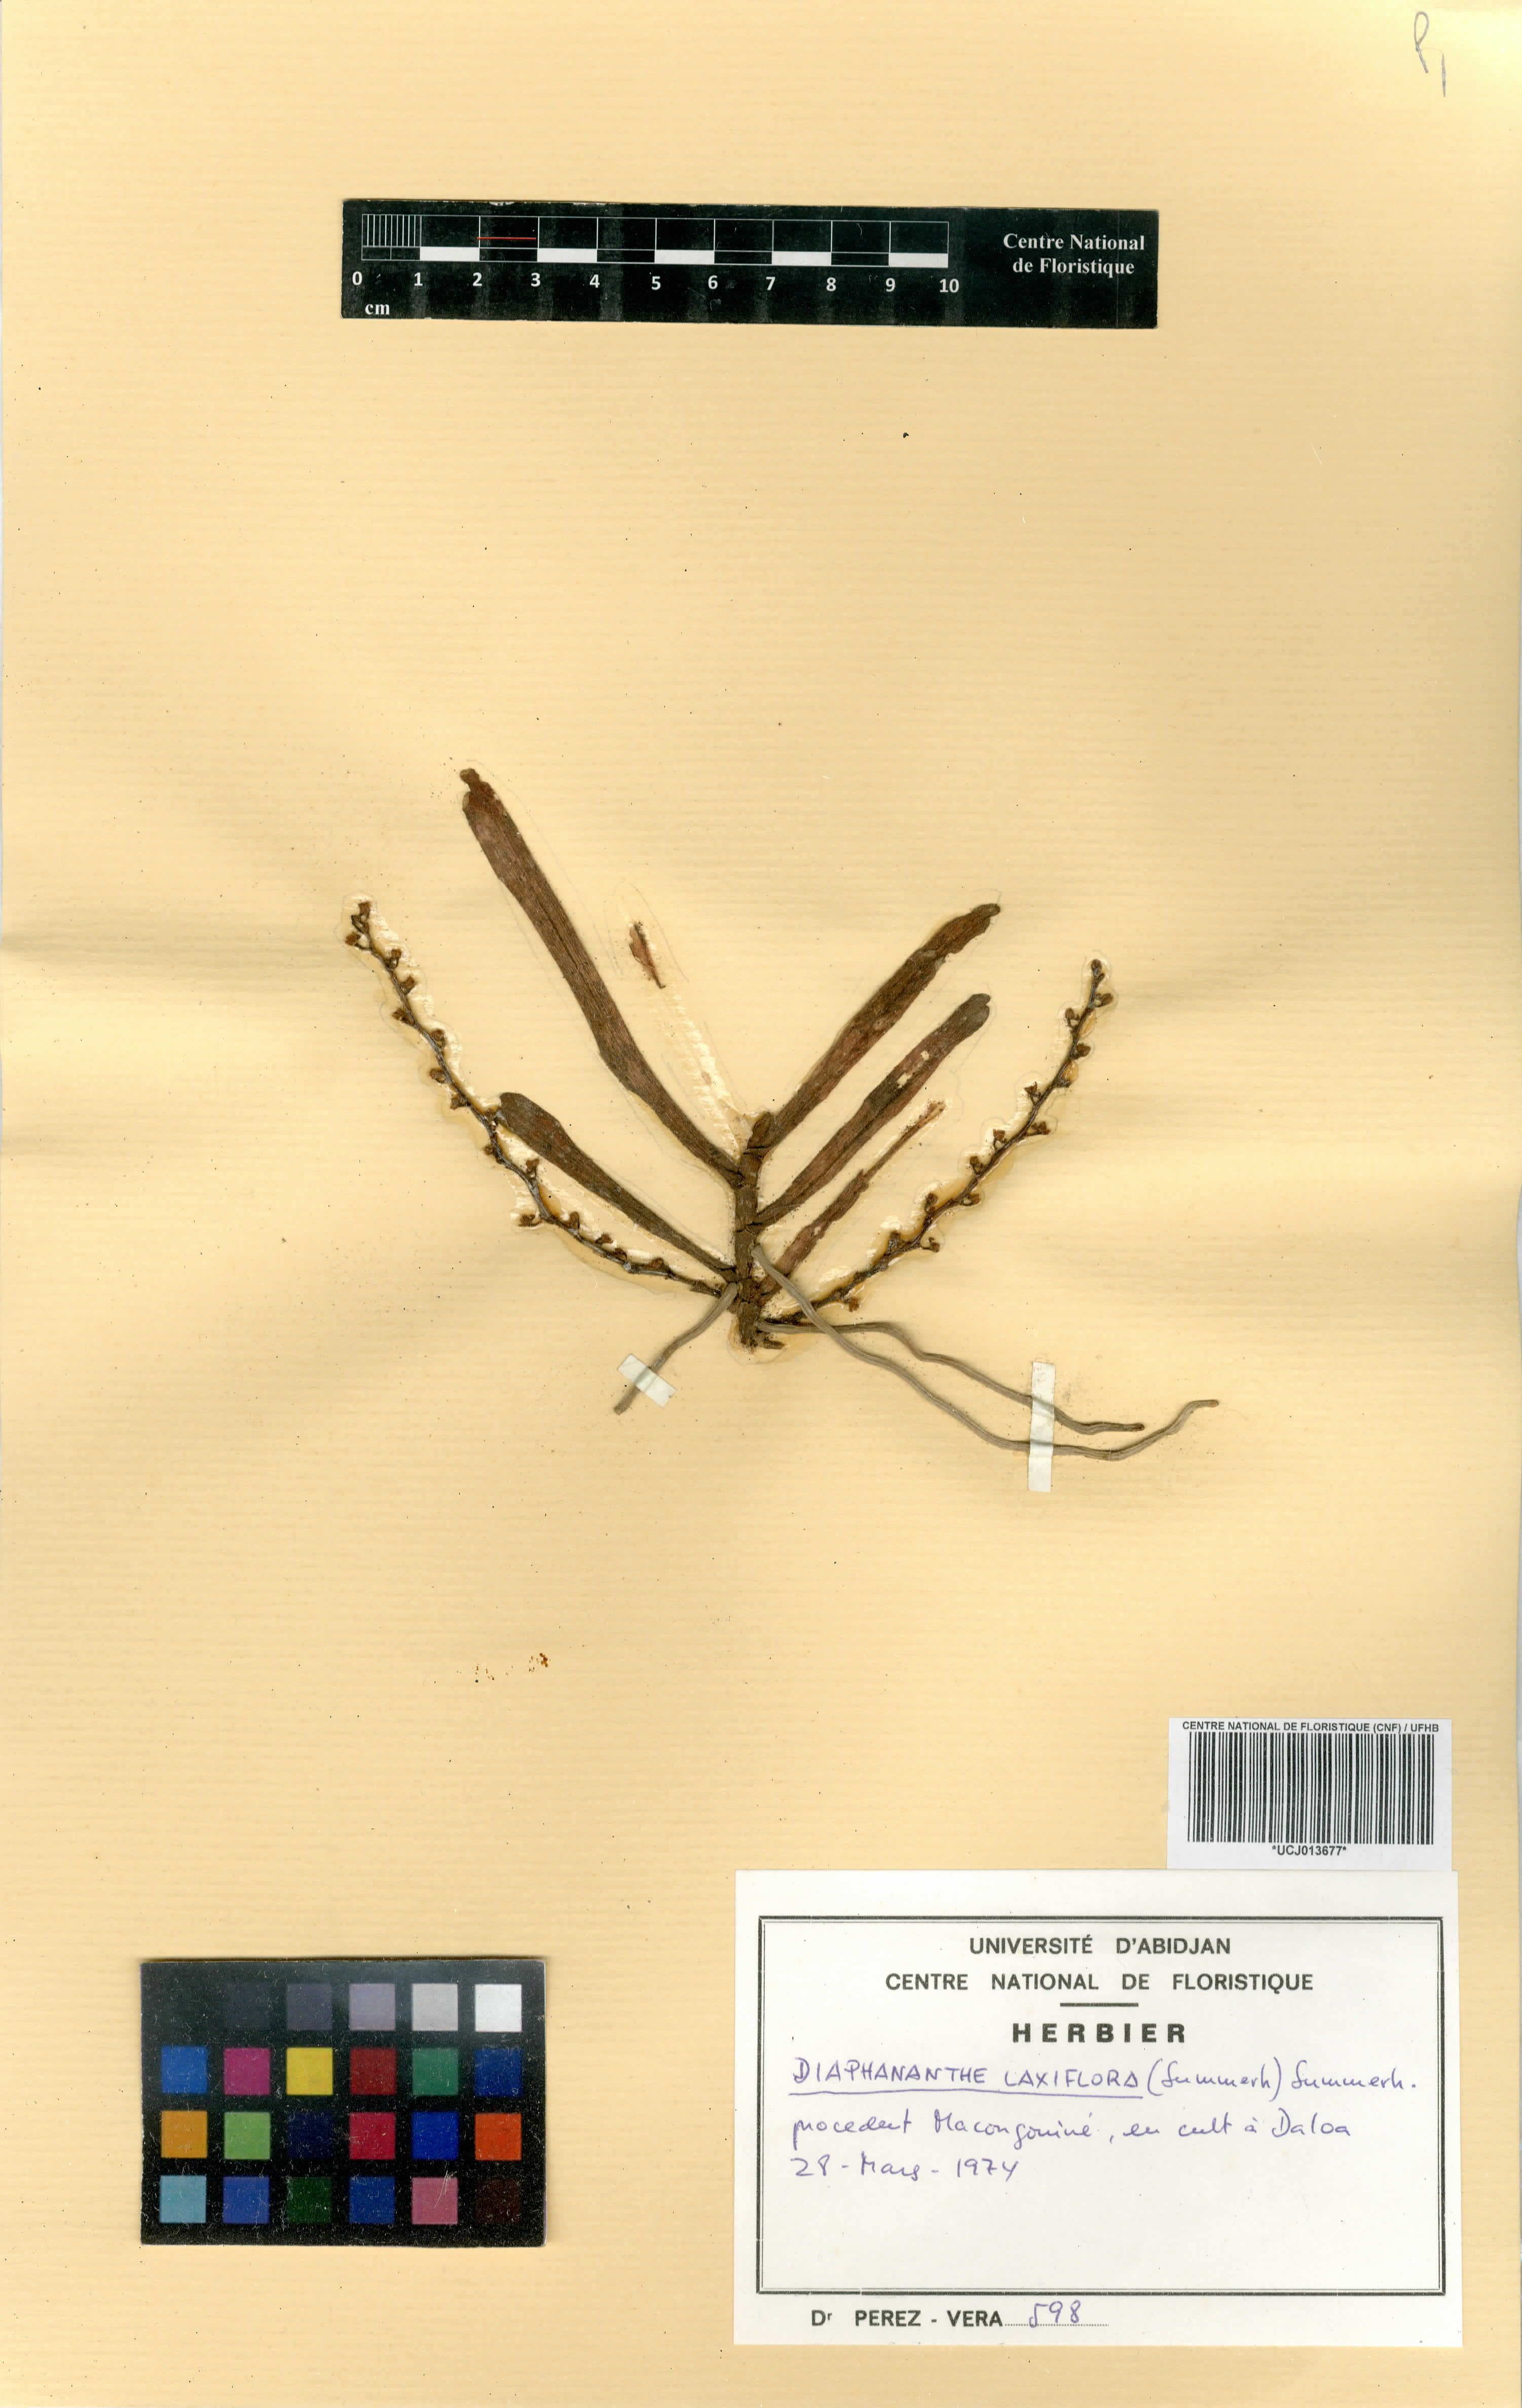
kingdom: Plantae
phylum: Tracheophyta
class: Liliopsida
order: Asparagales
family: Orchidaceae
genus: Rhipidoglossum
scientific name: Rhipidoglossum laxiflorum
